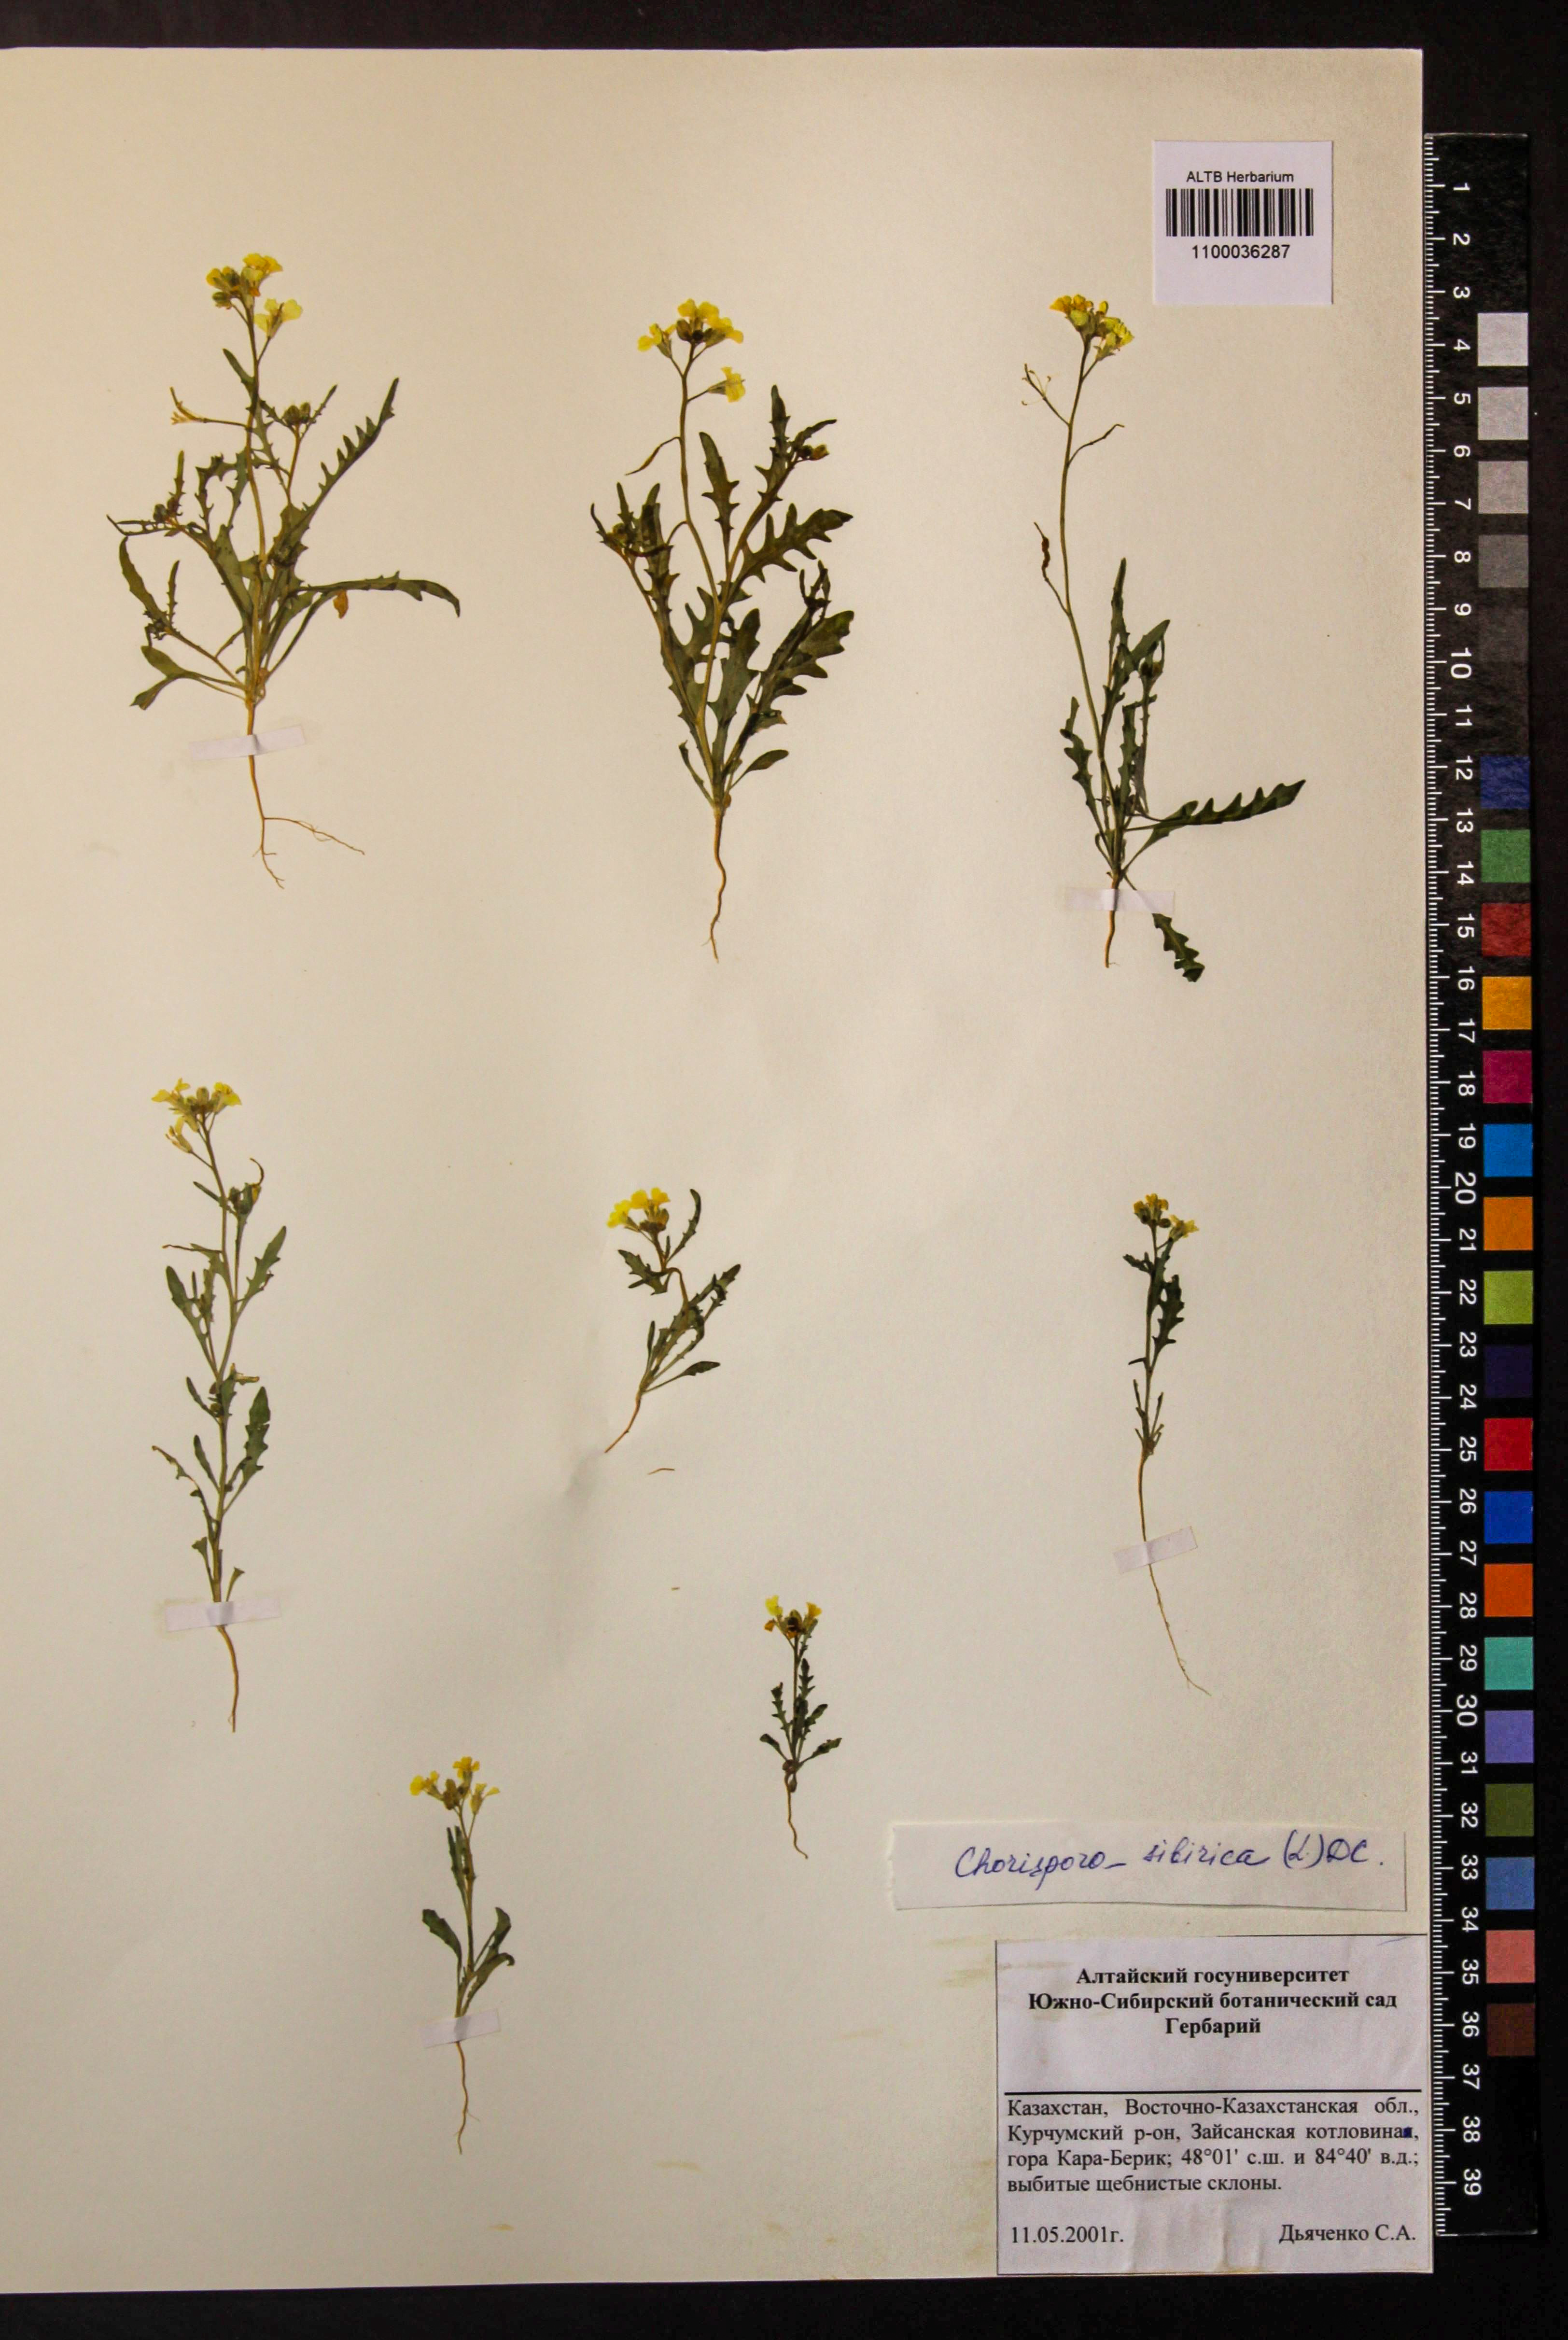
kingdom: Plantae
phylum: Tracheophyta
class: Magnoliopsida
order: Brassicales
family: Brassicaceae
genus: Chorispora
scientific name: Chorispora sibirica
